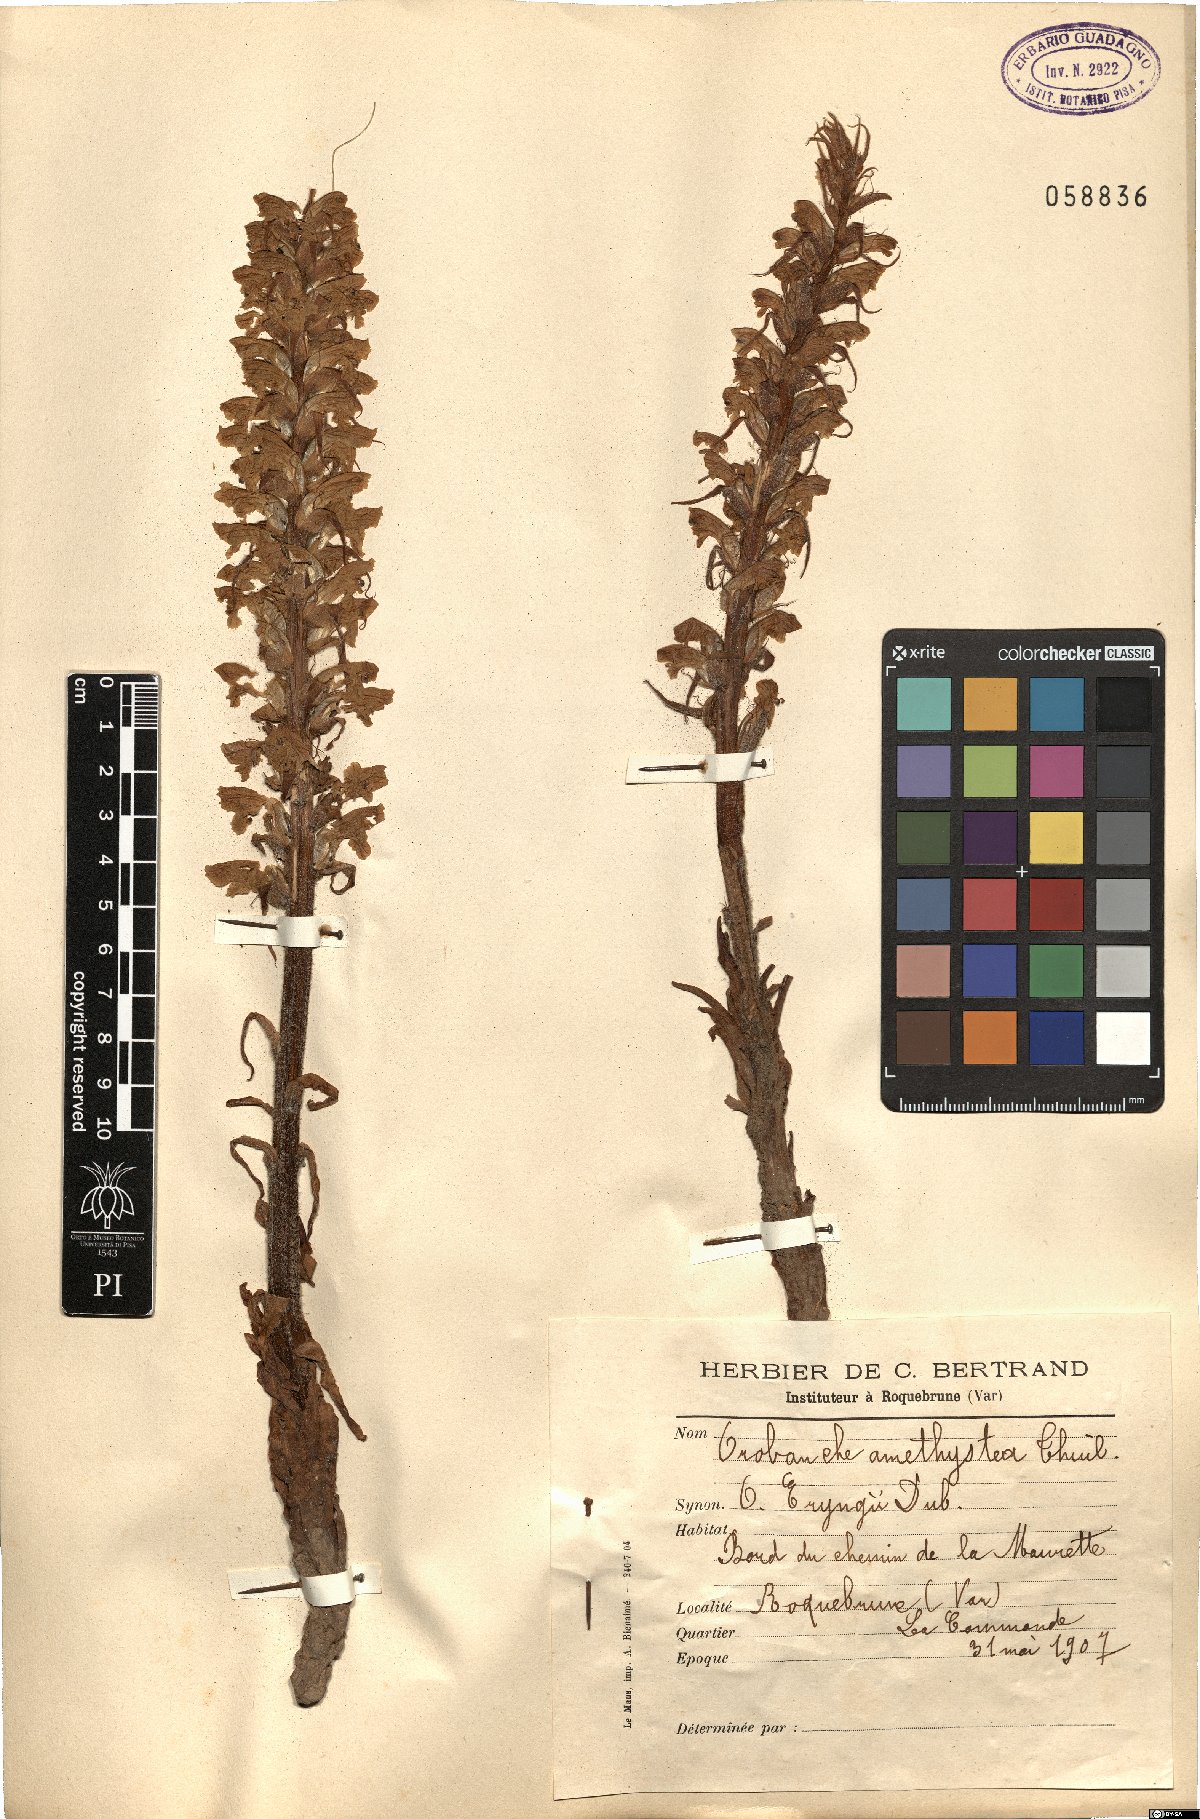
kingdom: Plantae
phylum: Tracheophyta
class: Magnoliopsida
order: Lamiales
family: Orobanchaceae
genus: Orobanche
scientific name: Orobanche amethystea
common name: Amethyst broomrape
